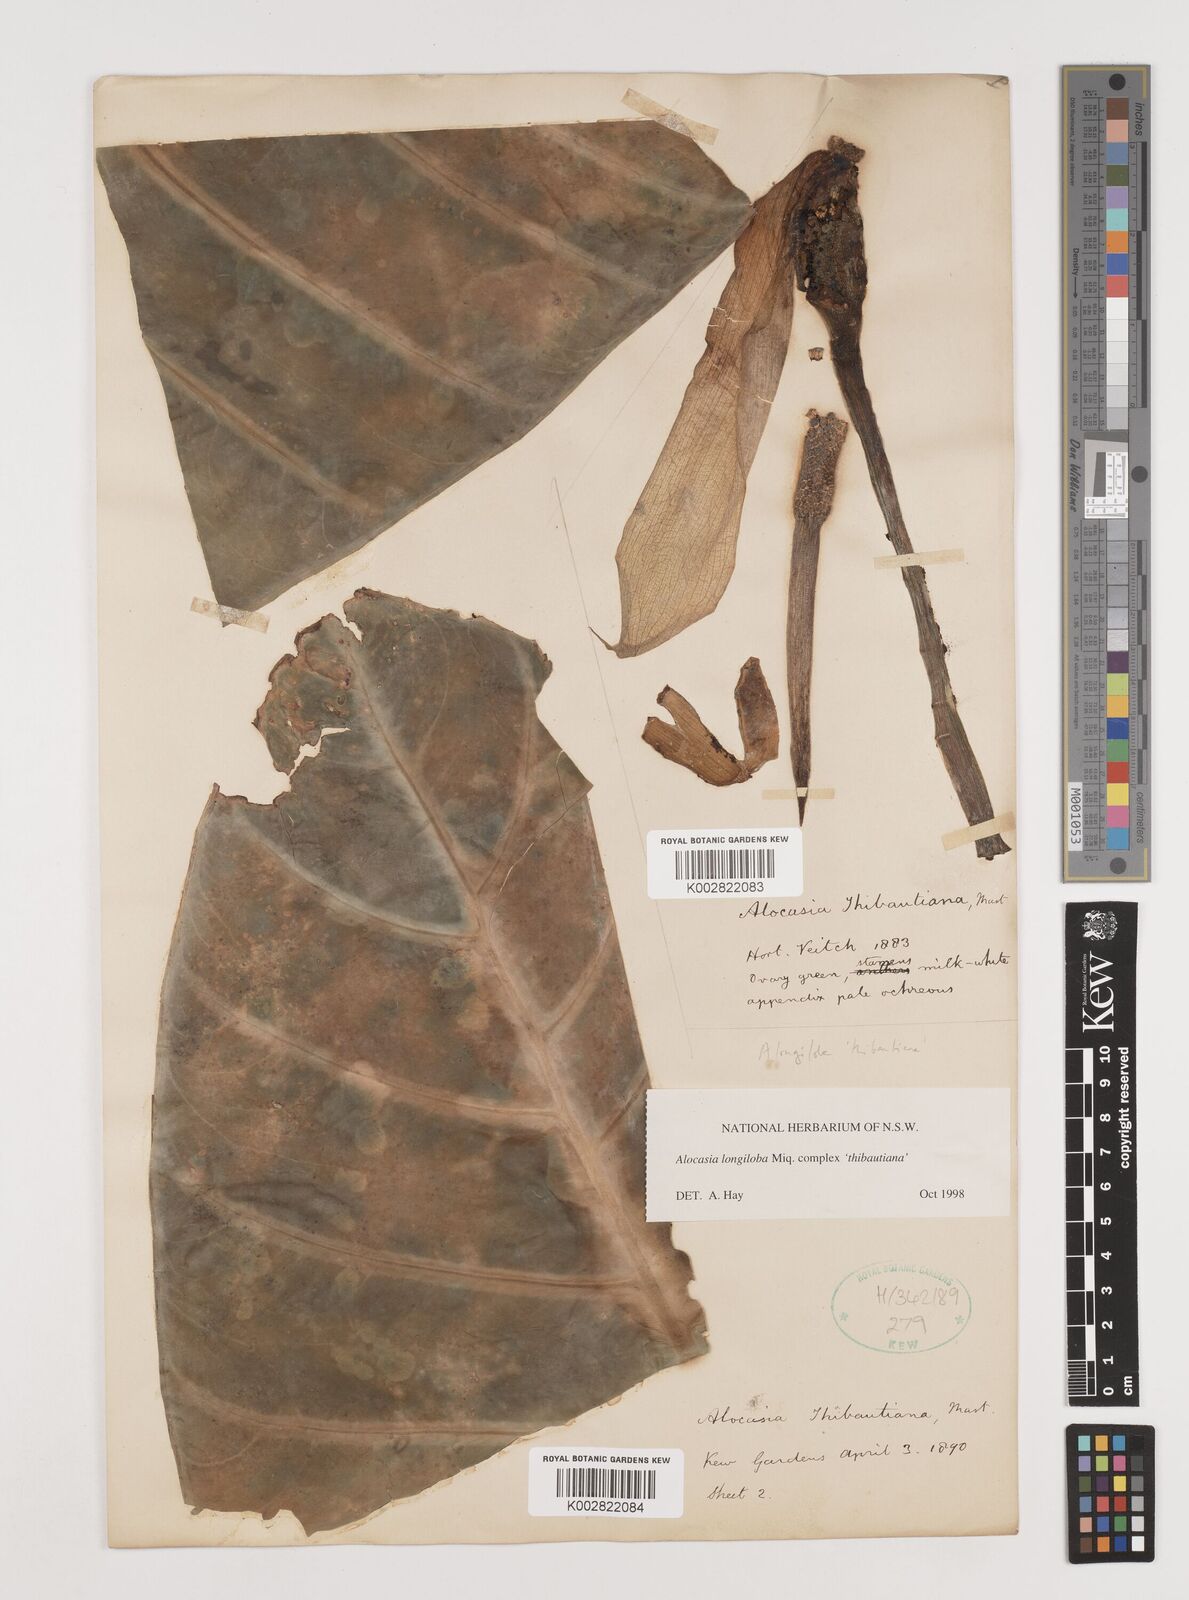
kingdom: Plantae
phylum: Tracheophyta
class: Liliopsida
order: Alismatales
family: Araceae
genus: Alocasia
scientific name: Alocasia longiloba
